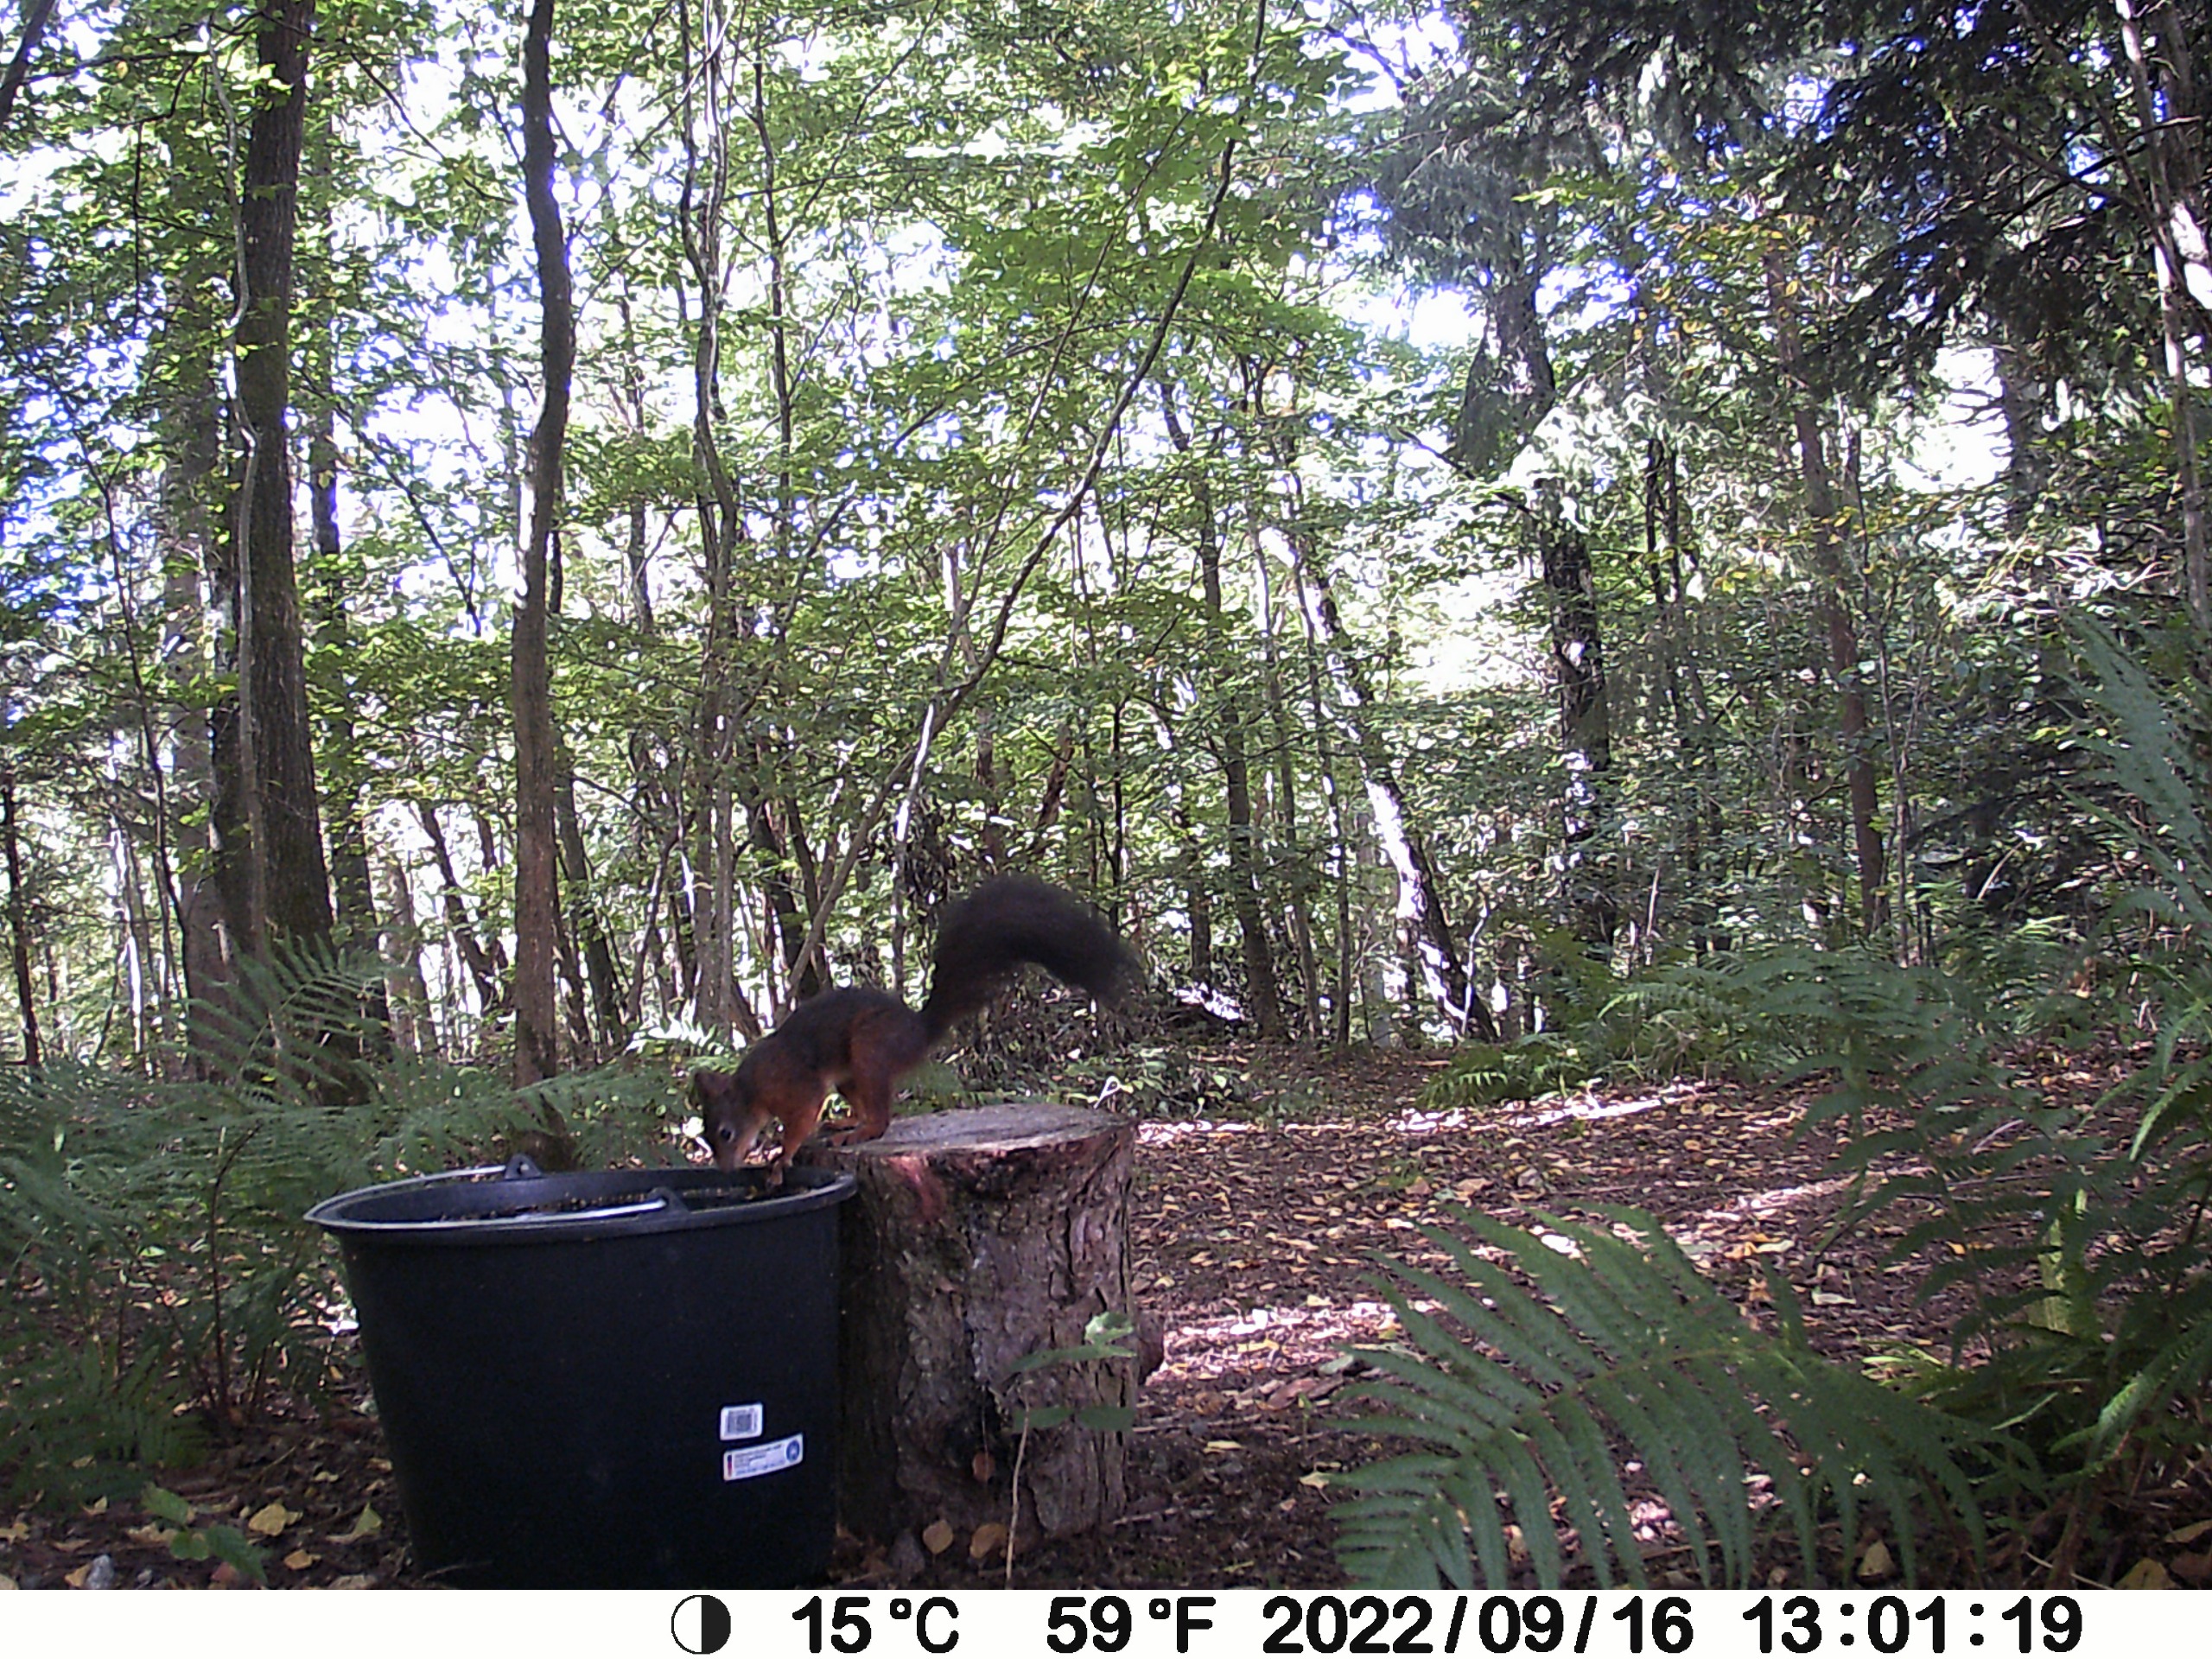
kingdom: Animalia
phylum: Chordata
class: Mammalia
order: Rodentia
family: Sciuridae
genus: Sciurus
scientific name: Sciurus vulgaris
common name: Egern
